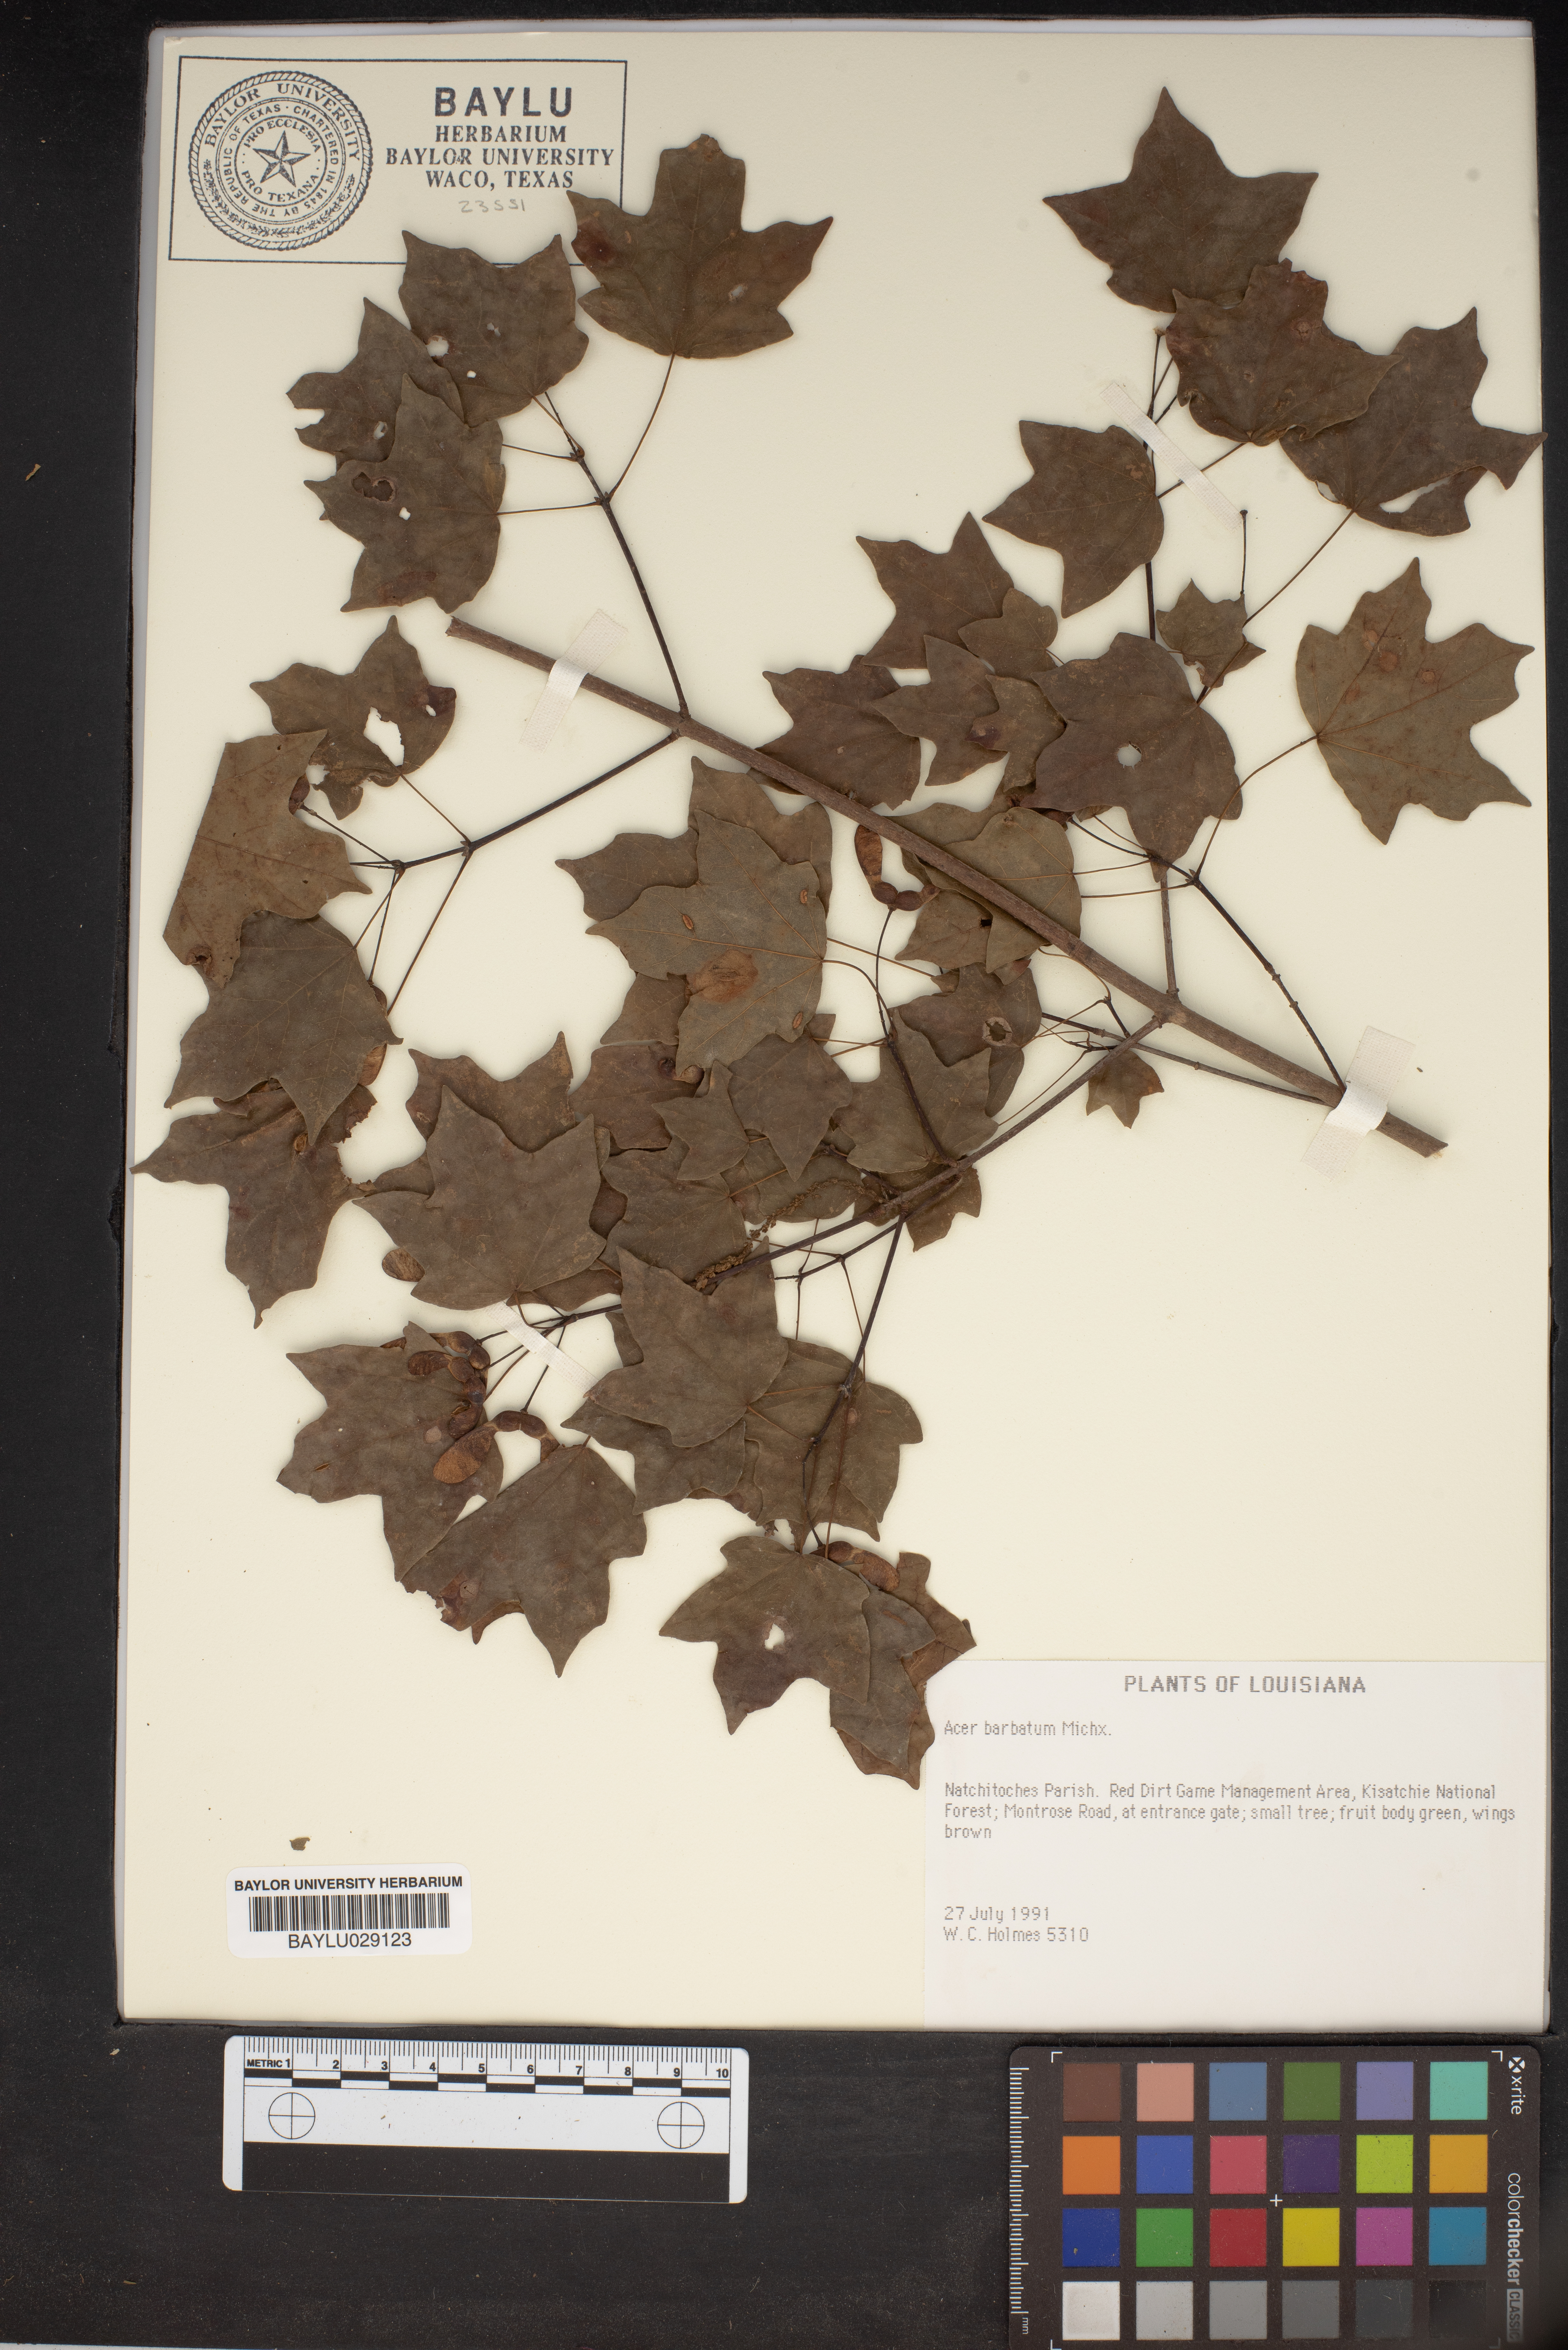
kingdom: Plantae
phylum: Tracheophyta
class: Magnoliopsida
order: Sapindales
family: Sapindaceae
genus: Acer
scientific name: Acer barbatum
